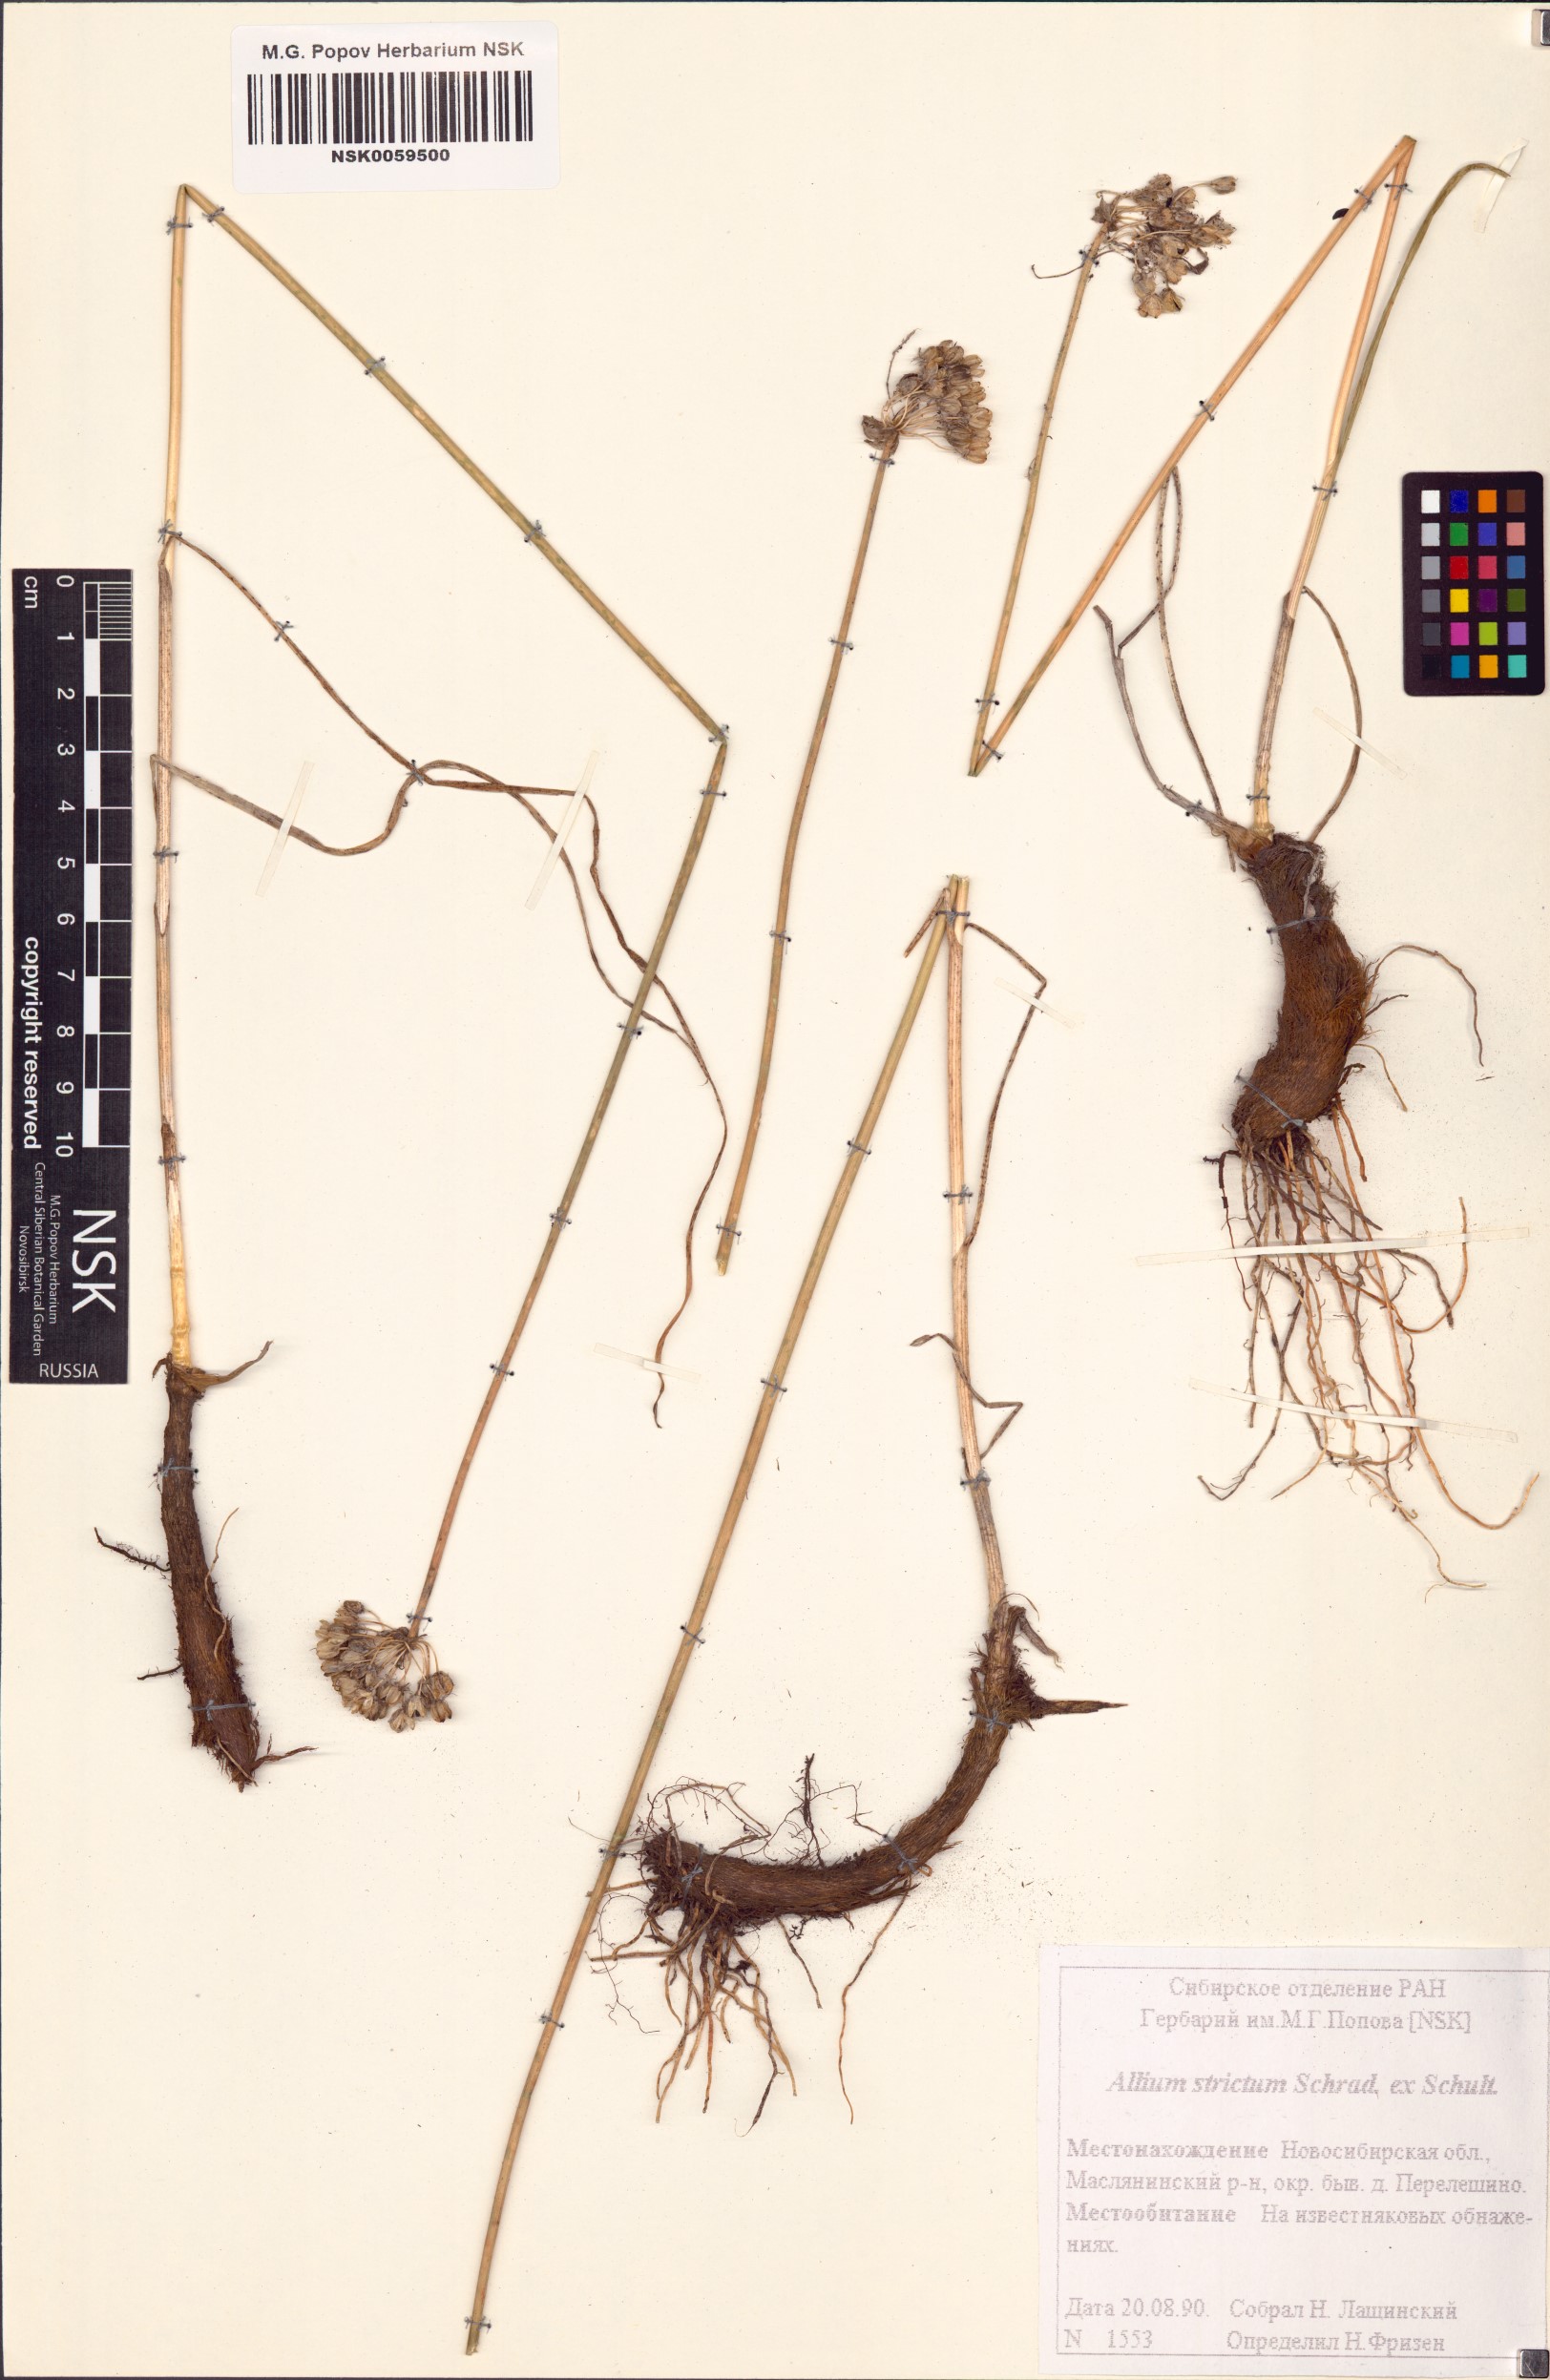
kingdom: Plantae
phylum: Tracheophyta
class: Liliopsida
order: Asparagales
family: Amaryllidaceae
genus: Allium
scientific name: Allium strictum
